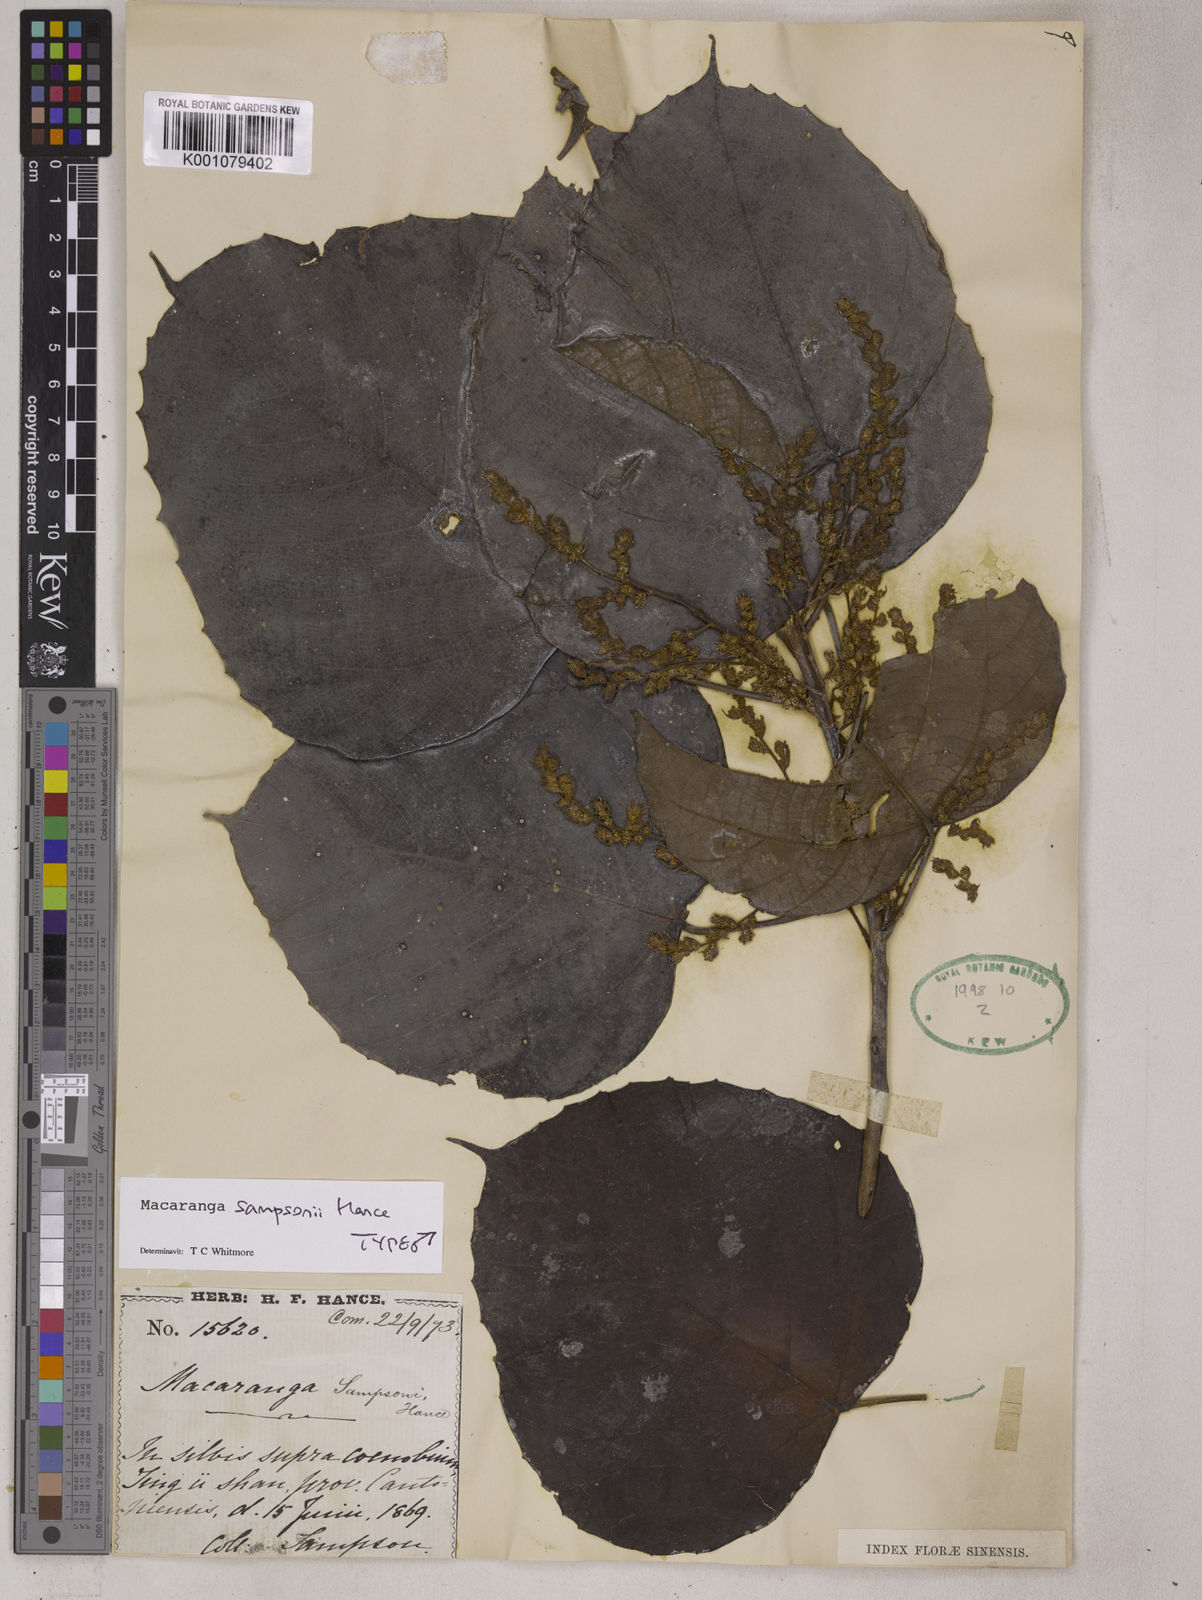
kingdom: Plantae
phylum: Tracheophyta
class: Magnoliopsida
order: Malpighiales
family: Euphorbiaceae
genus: Macaranga
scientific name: Macaranga sampsonii
